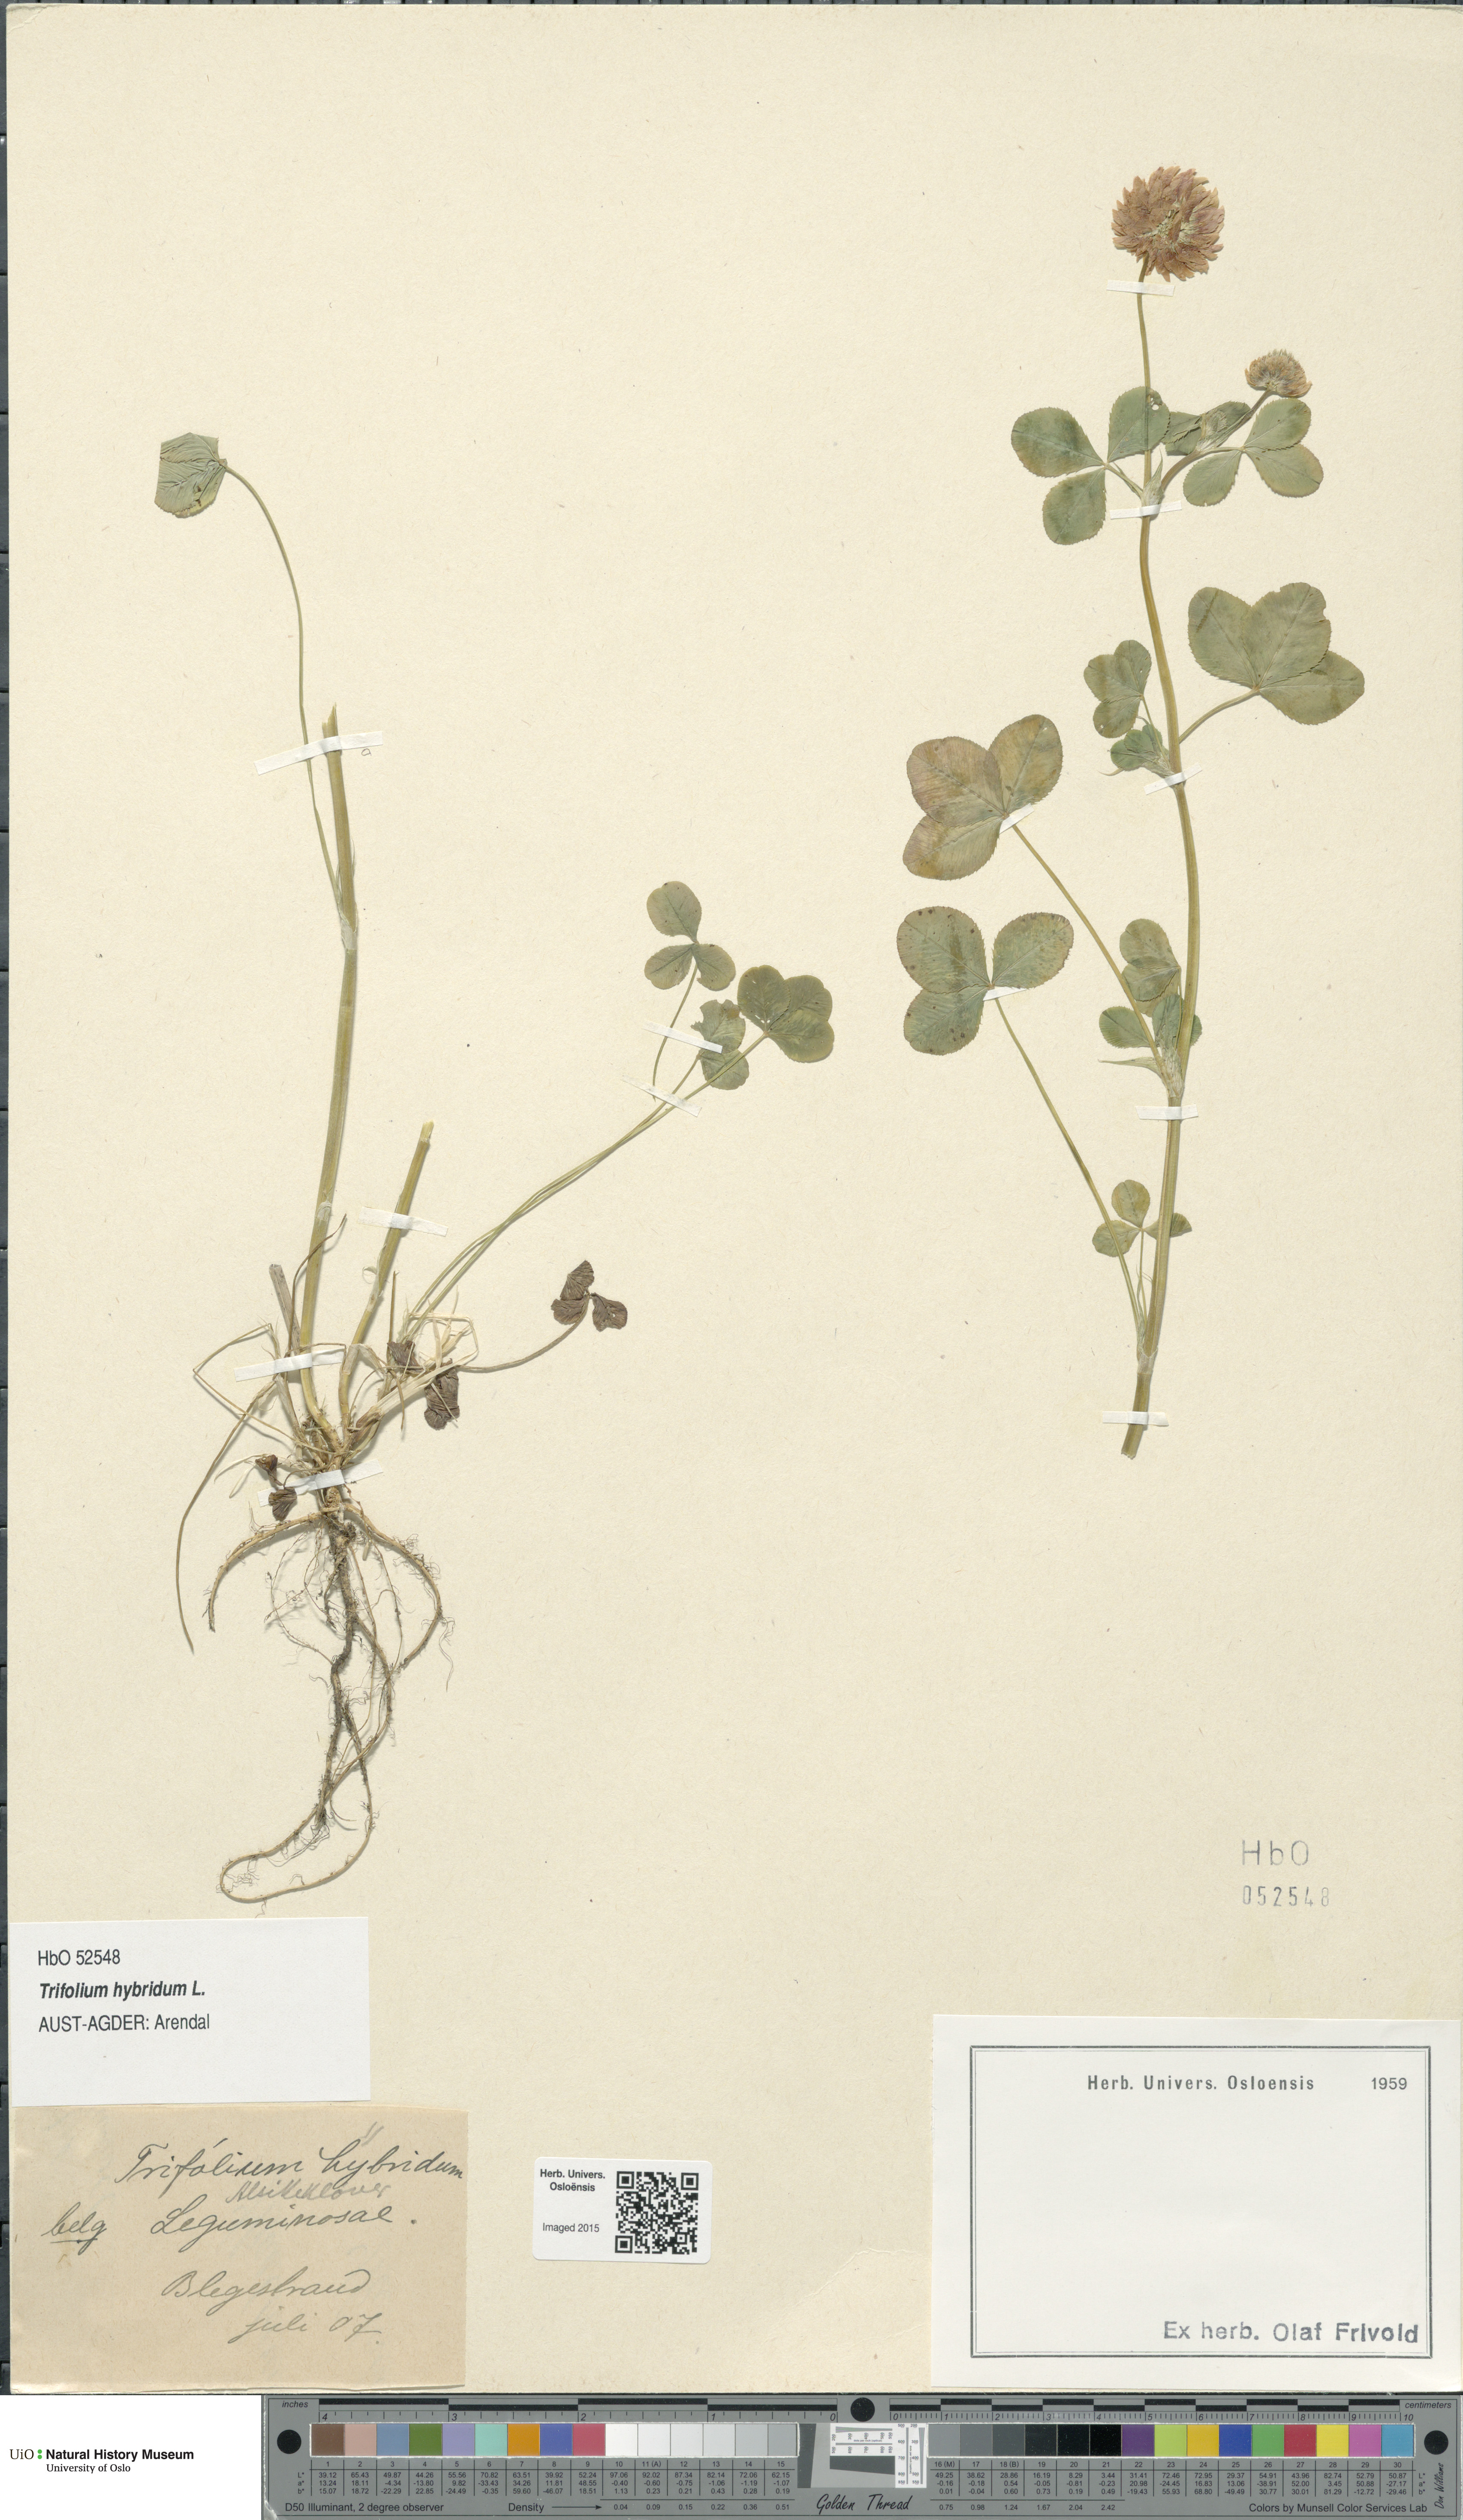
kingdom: Plantae
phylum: Tracheophyta
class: Magnoliopsida
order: Fabales
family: Fabaceae
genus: Trifolium
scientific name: Trifolium hybridum
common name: Alsike clover
